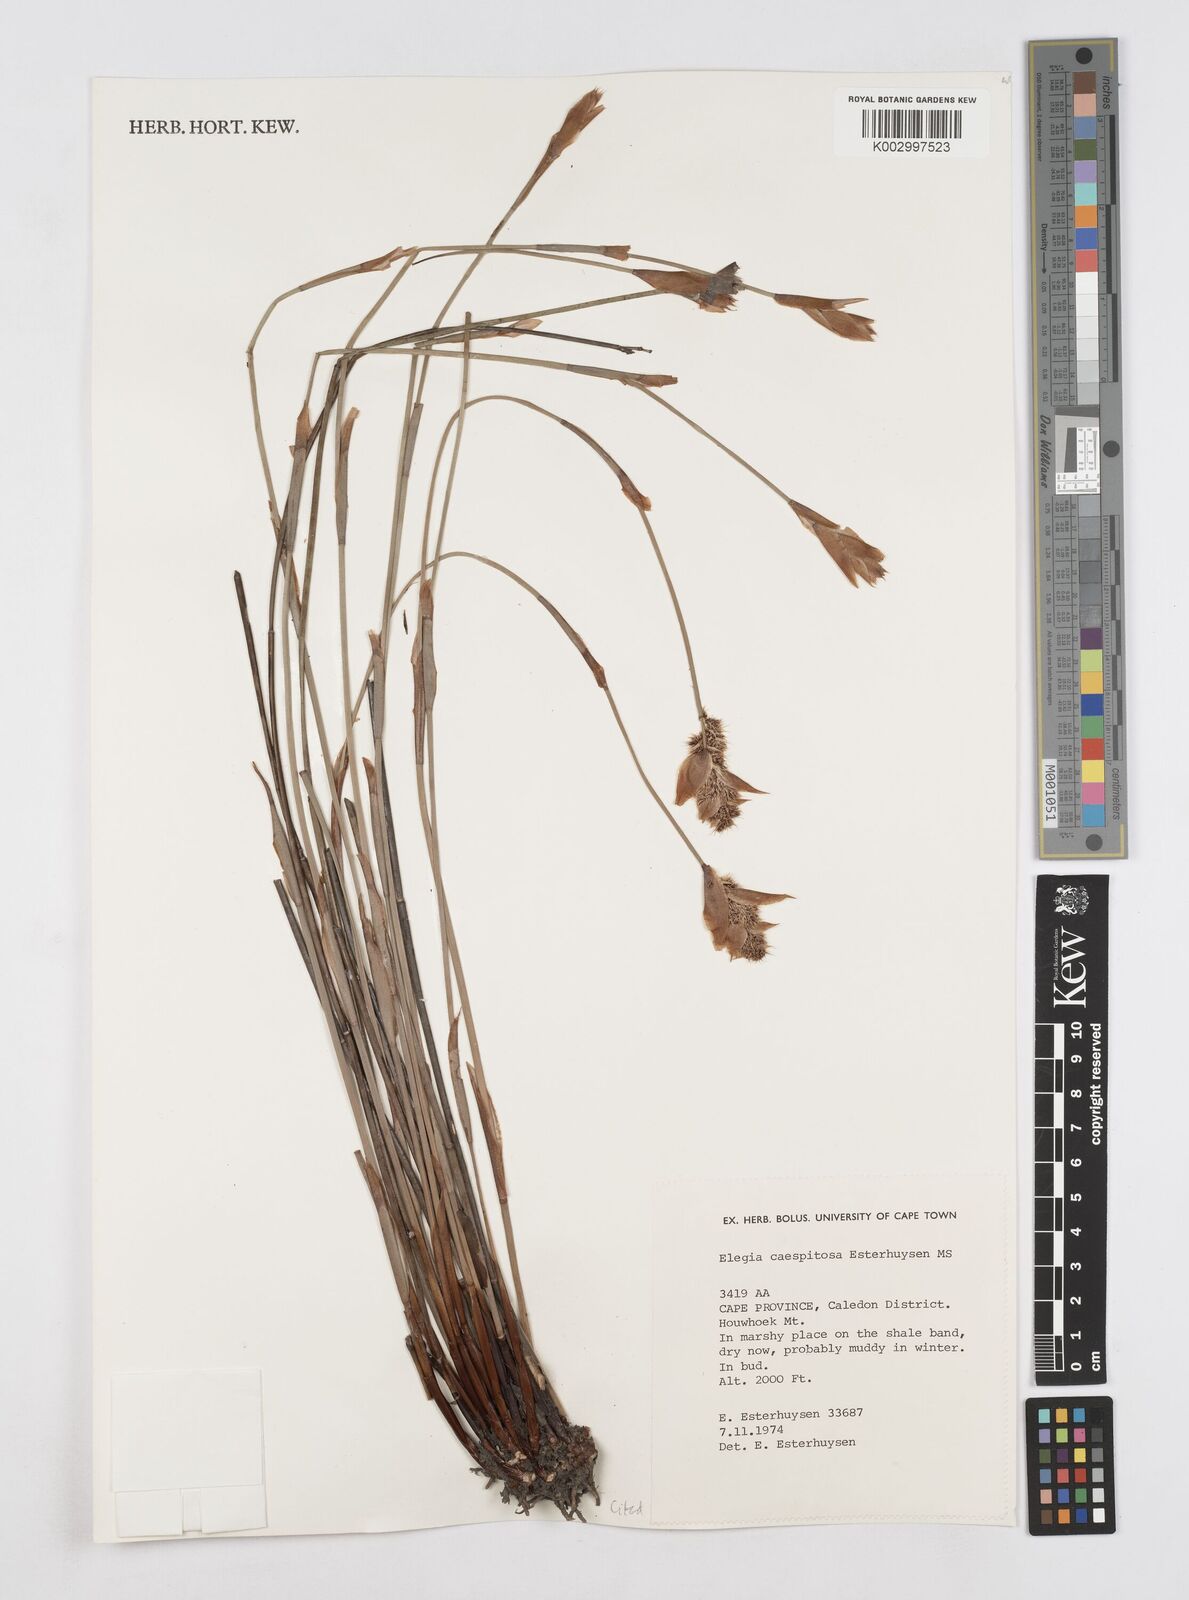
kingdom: Plantae
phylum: Tracheophyta
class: Liliopsida
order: Poales
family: Restionaceae
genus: Elegia
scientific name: Elegia caespitosa
